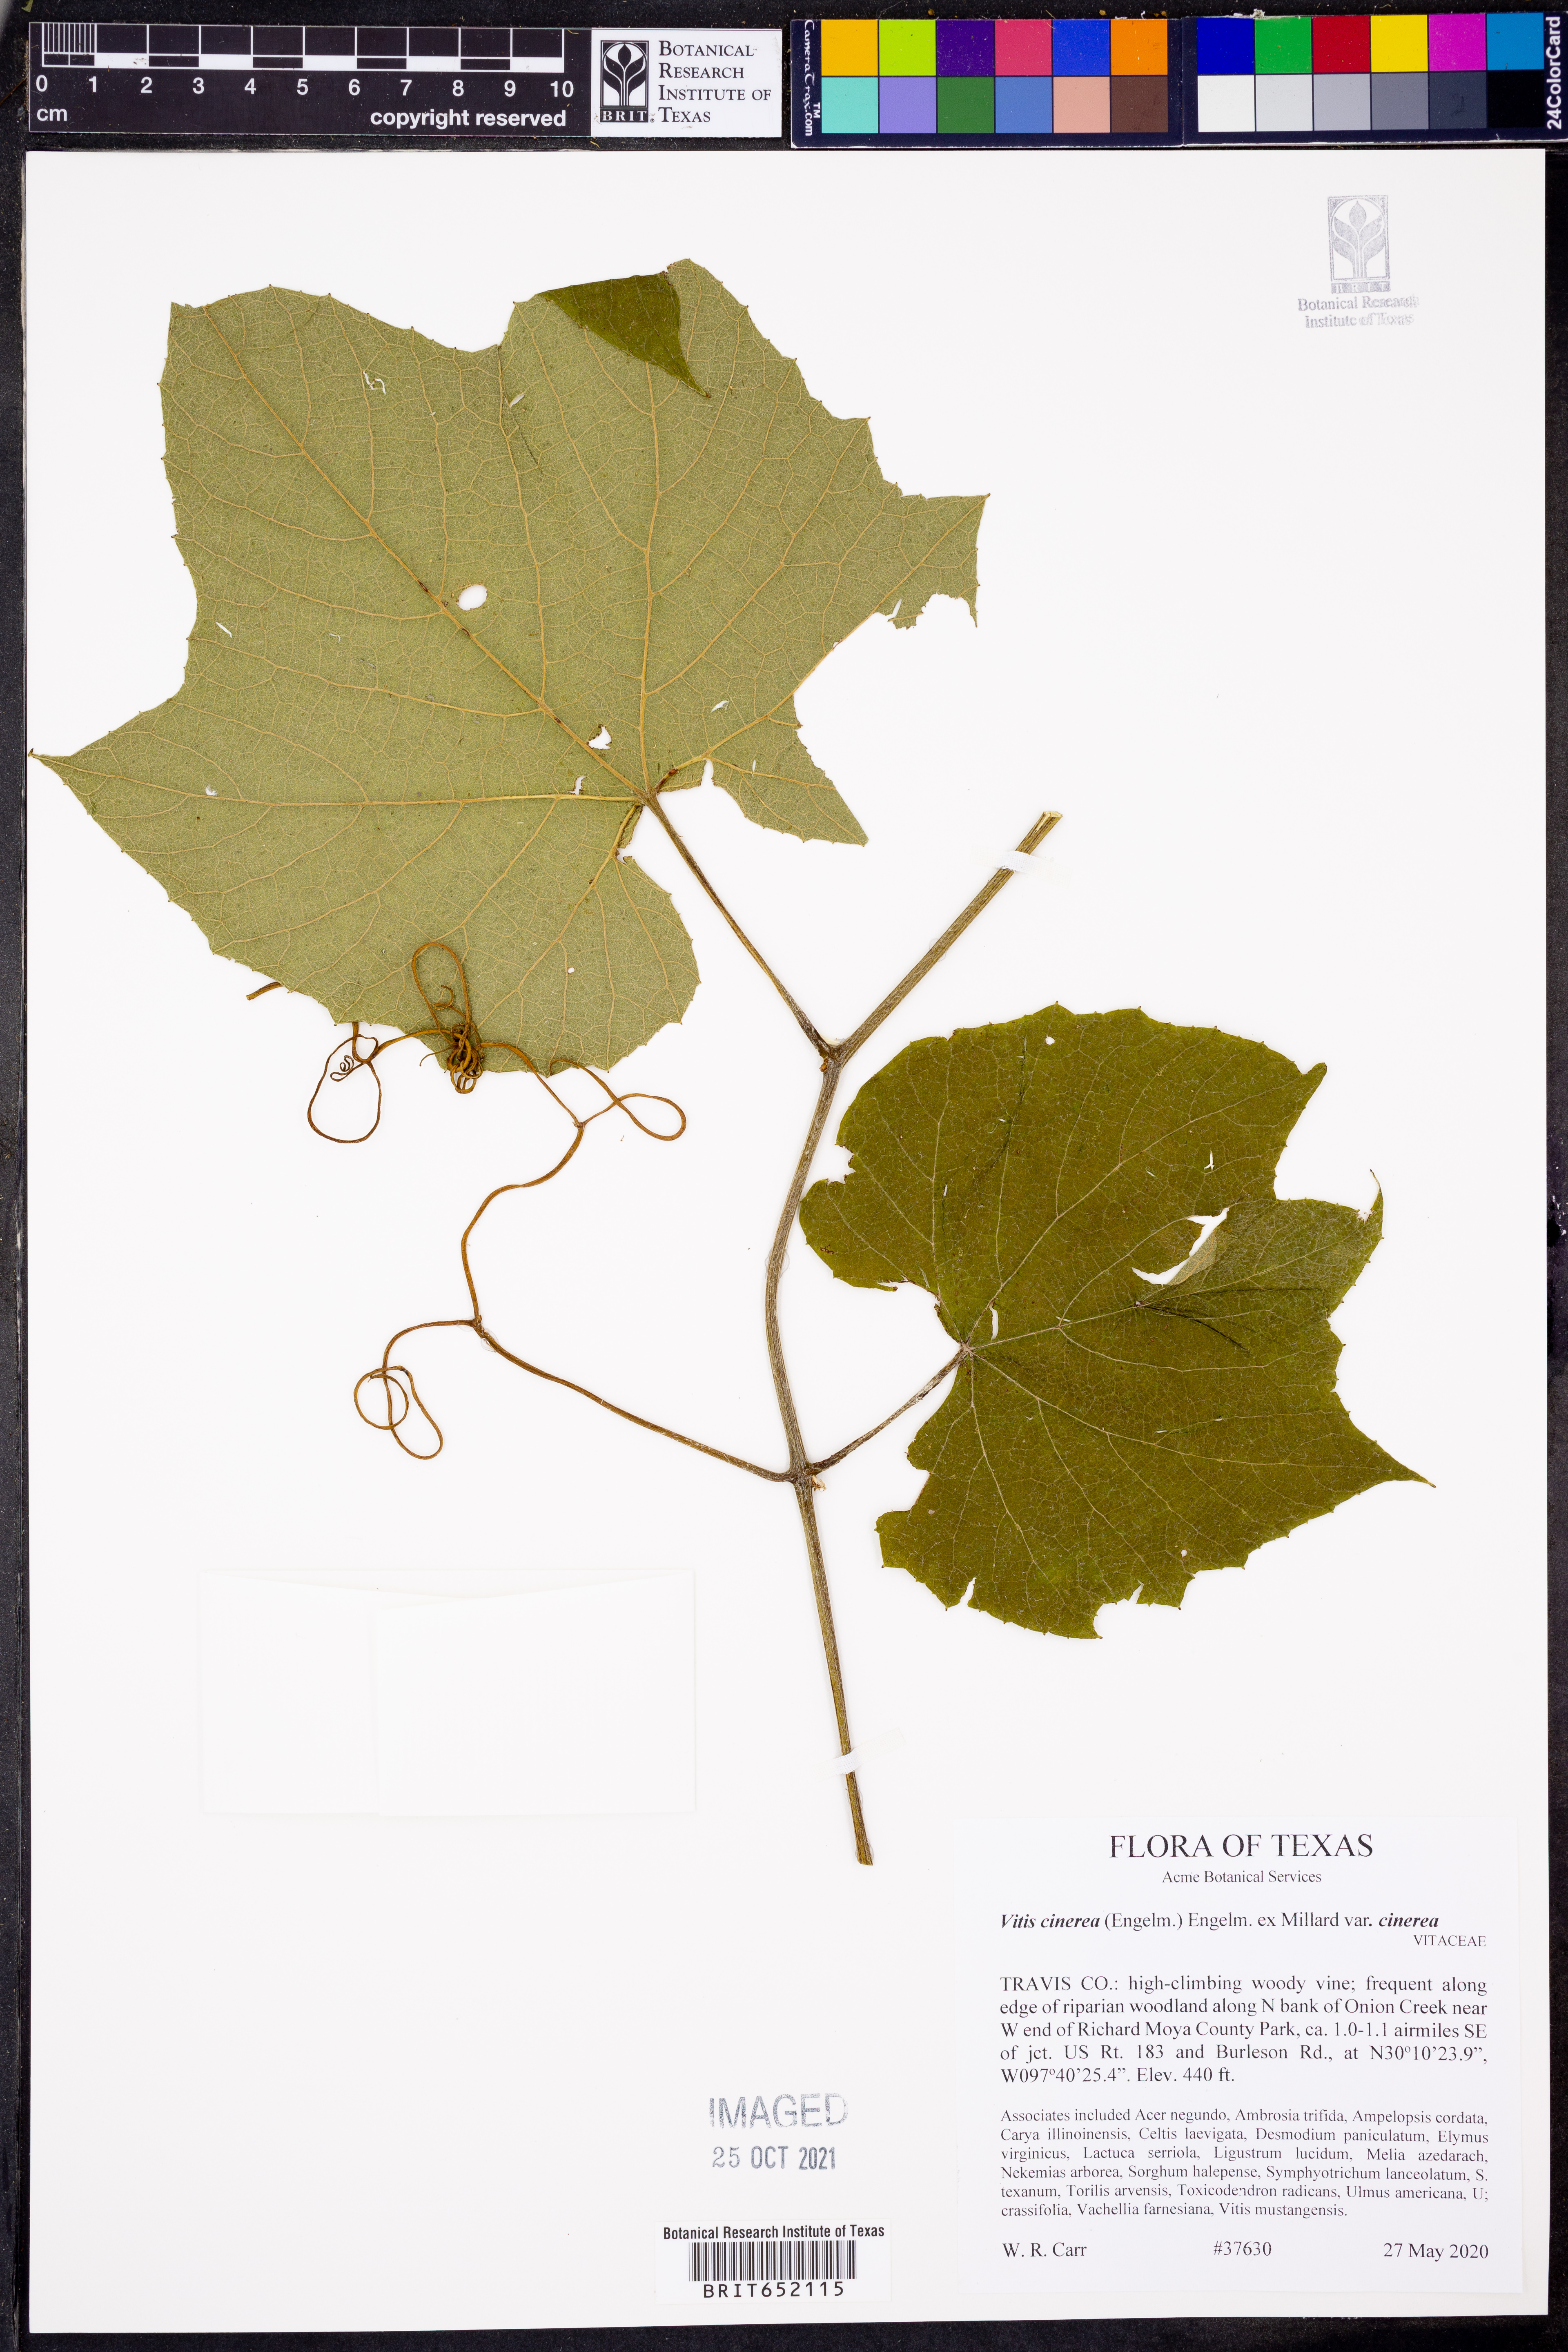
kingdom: Plantae
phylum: Tracheophyta
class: Magnoliopsida
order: Vitales
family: Vitaceae
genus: Vitis
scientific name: Vitis cinerea
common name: Ashy grape
